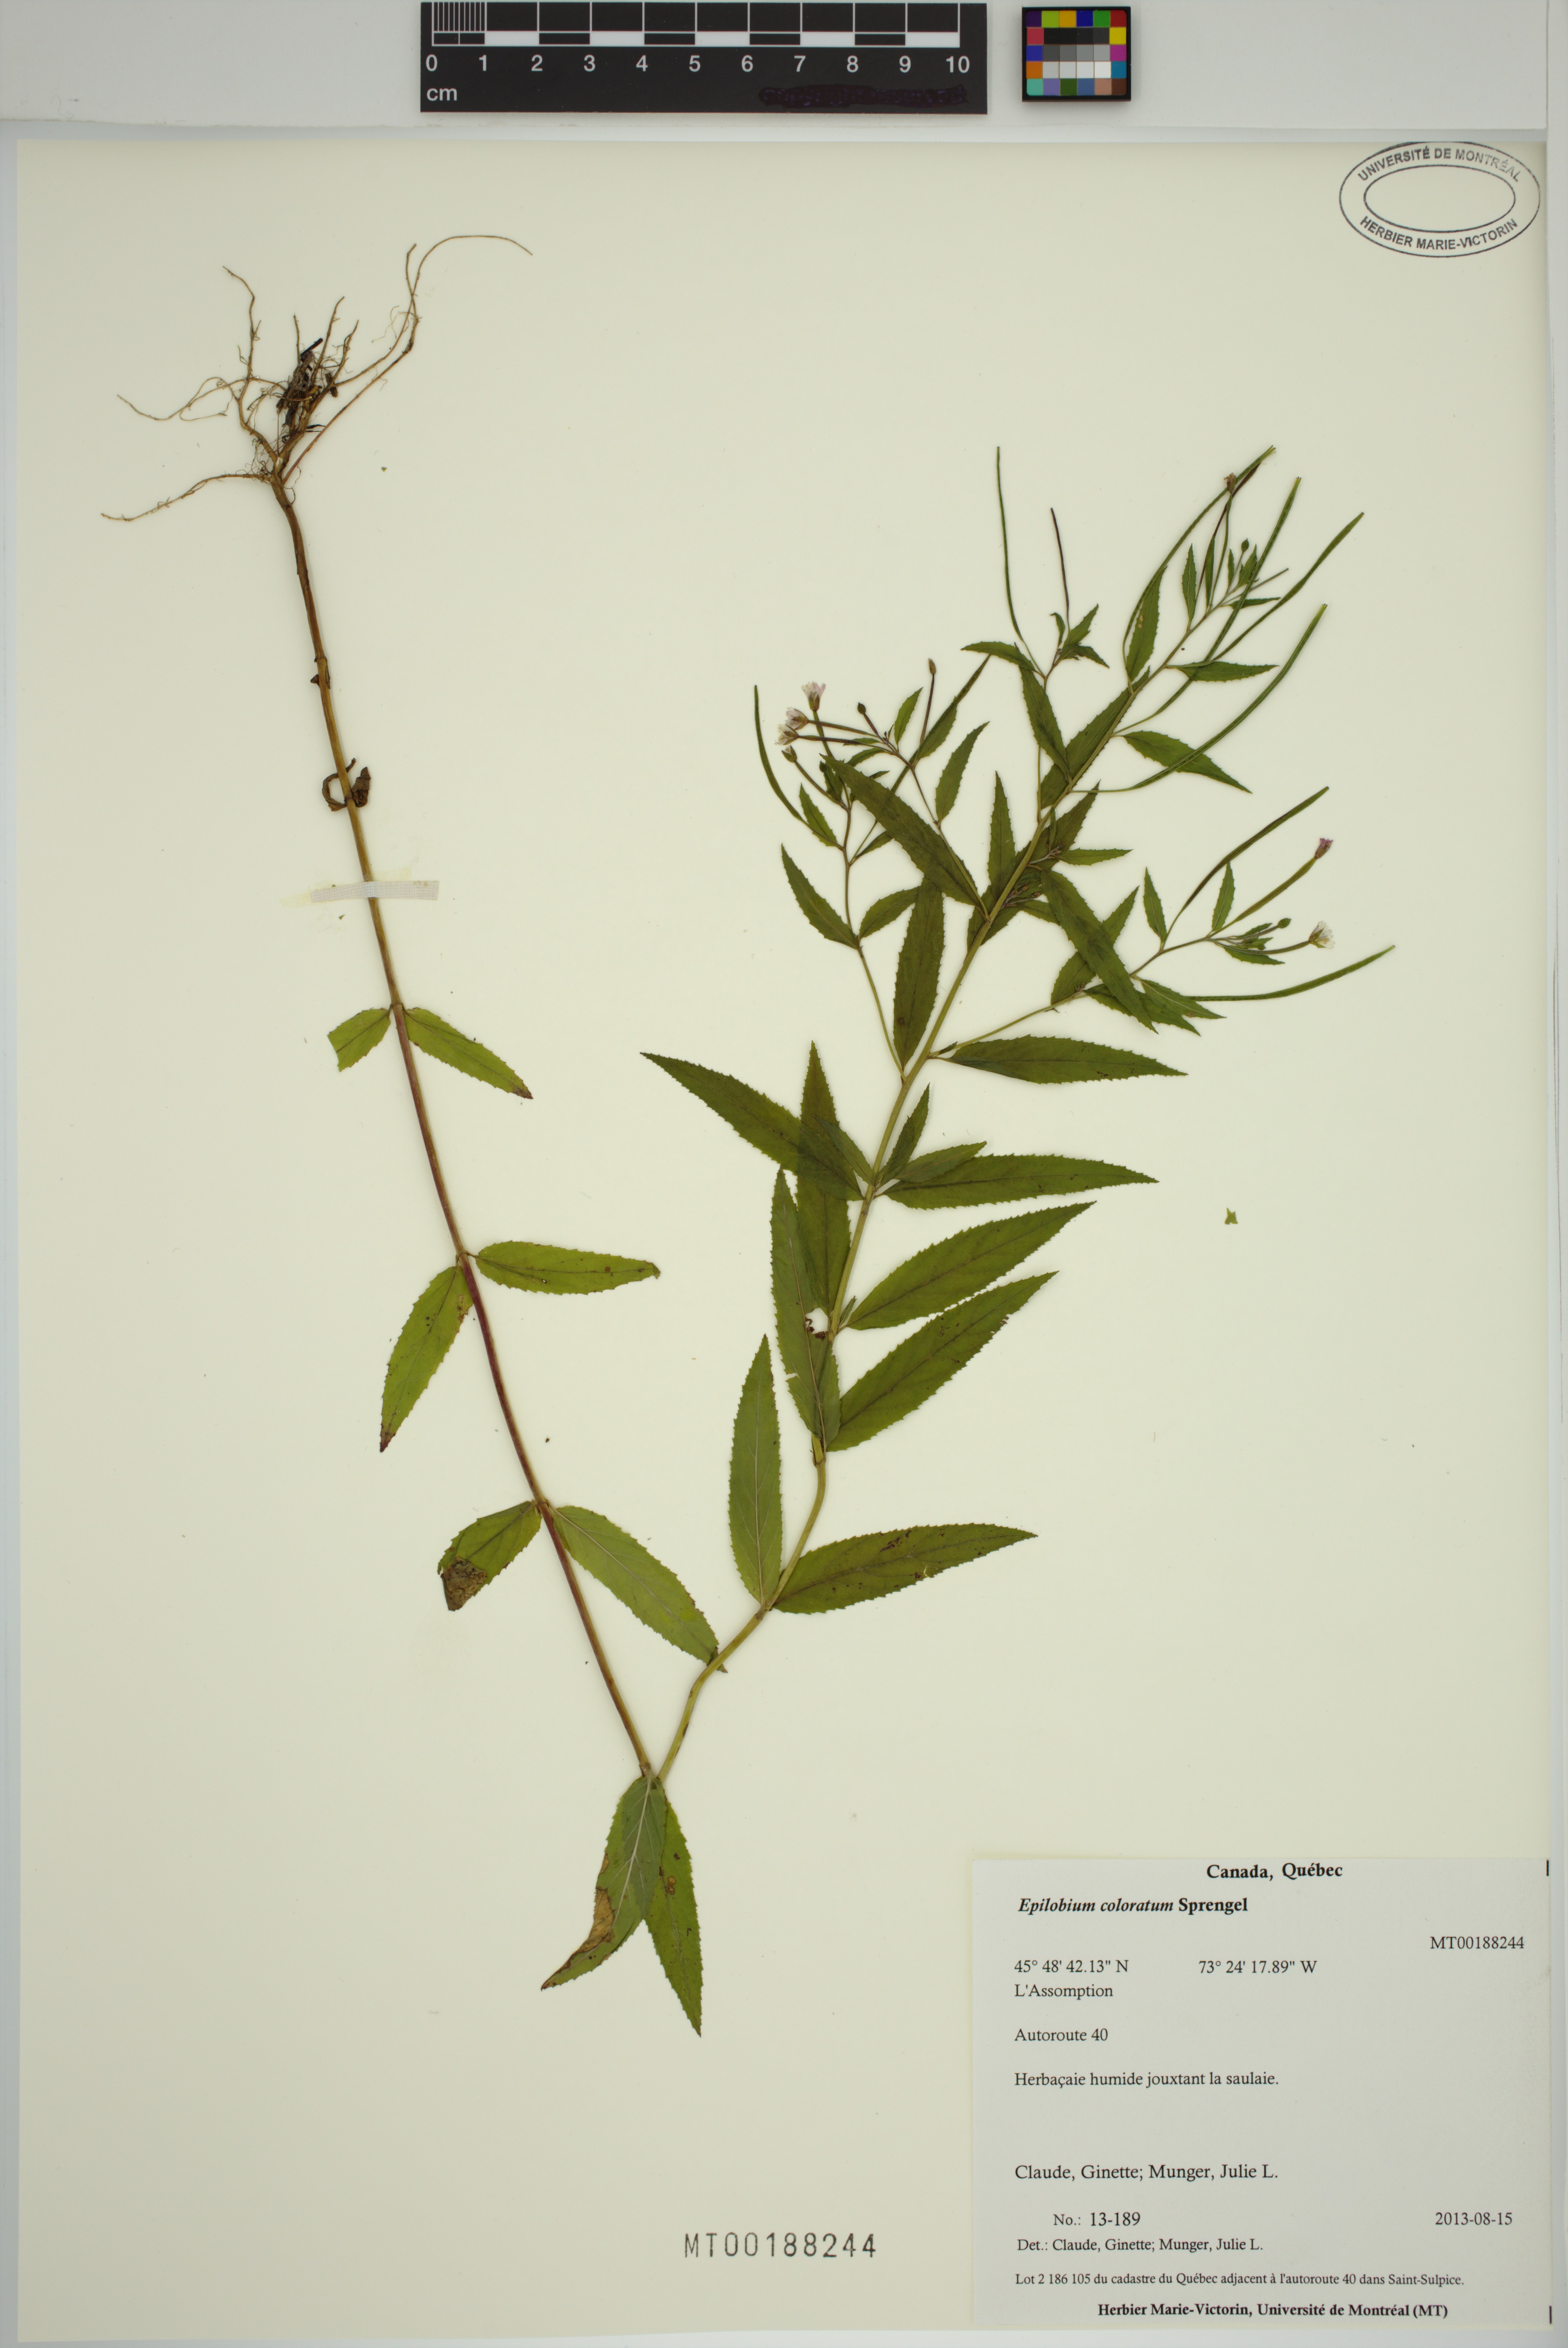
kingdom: Plantae
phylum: Tracheophyta
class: Magnoliopsida
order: Myrtales
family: Onagraceae
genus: Epilobium
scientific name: Epilobium coloratum
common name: Bronze willowherb
